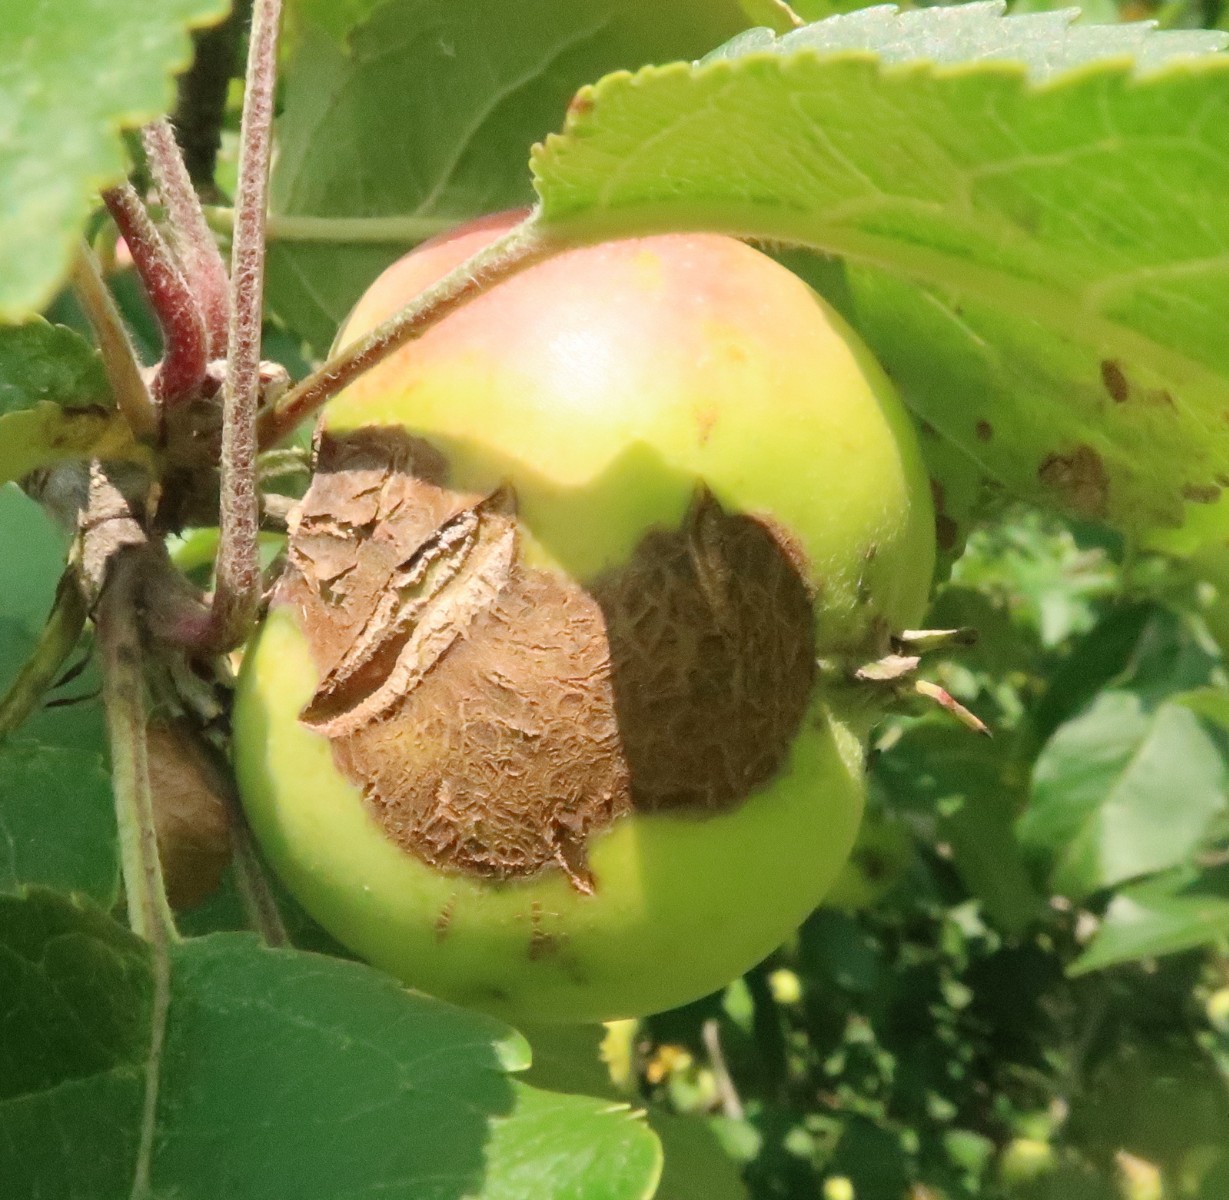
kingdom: Fungi
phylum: Ascomycota
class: Dothideomycetes
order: Venturiales
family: Venturiaceae
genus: Venturia
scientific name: Venturia inaequalis
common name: Apple scab
